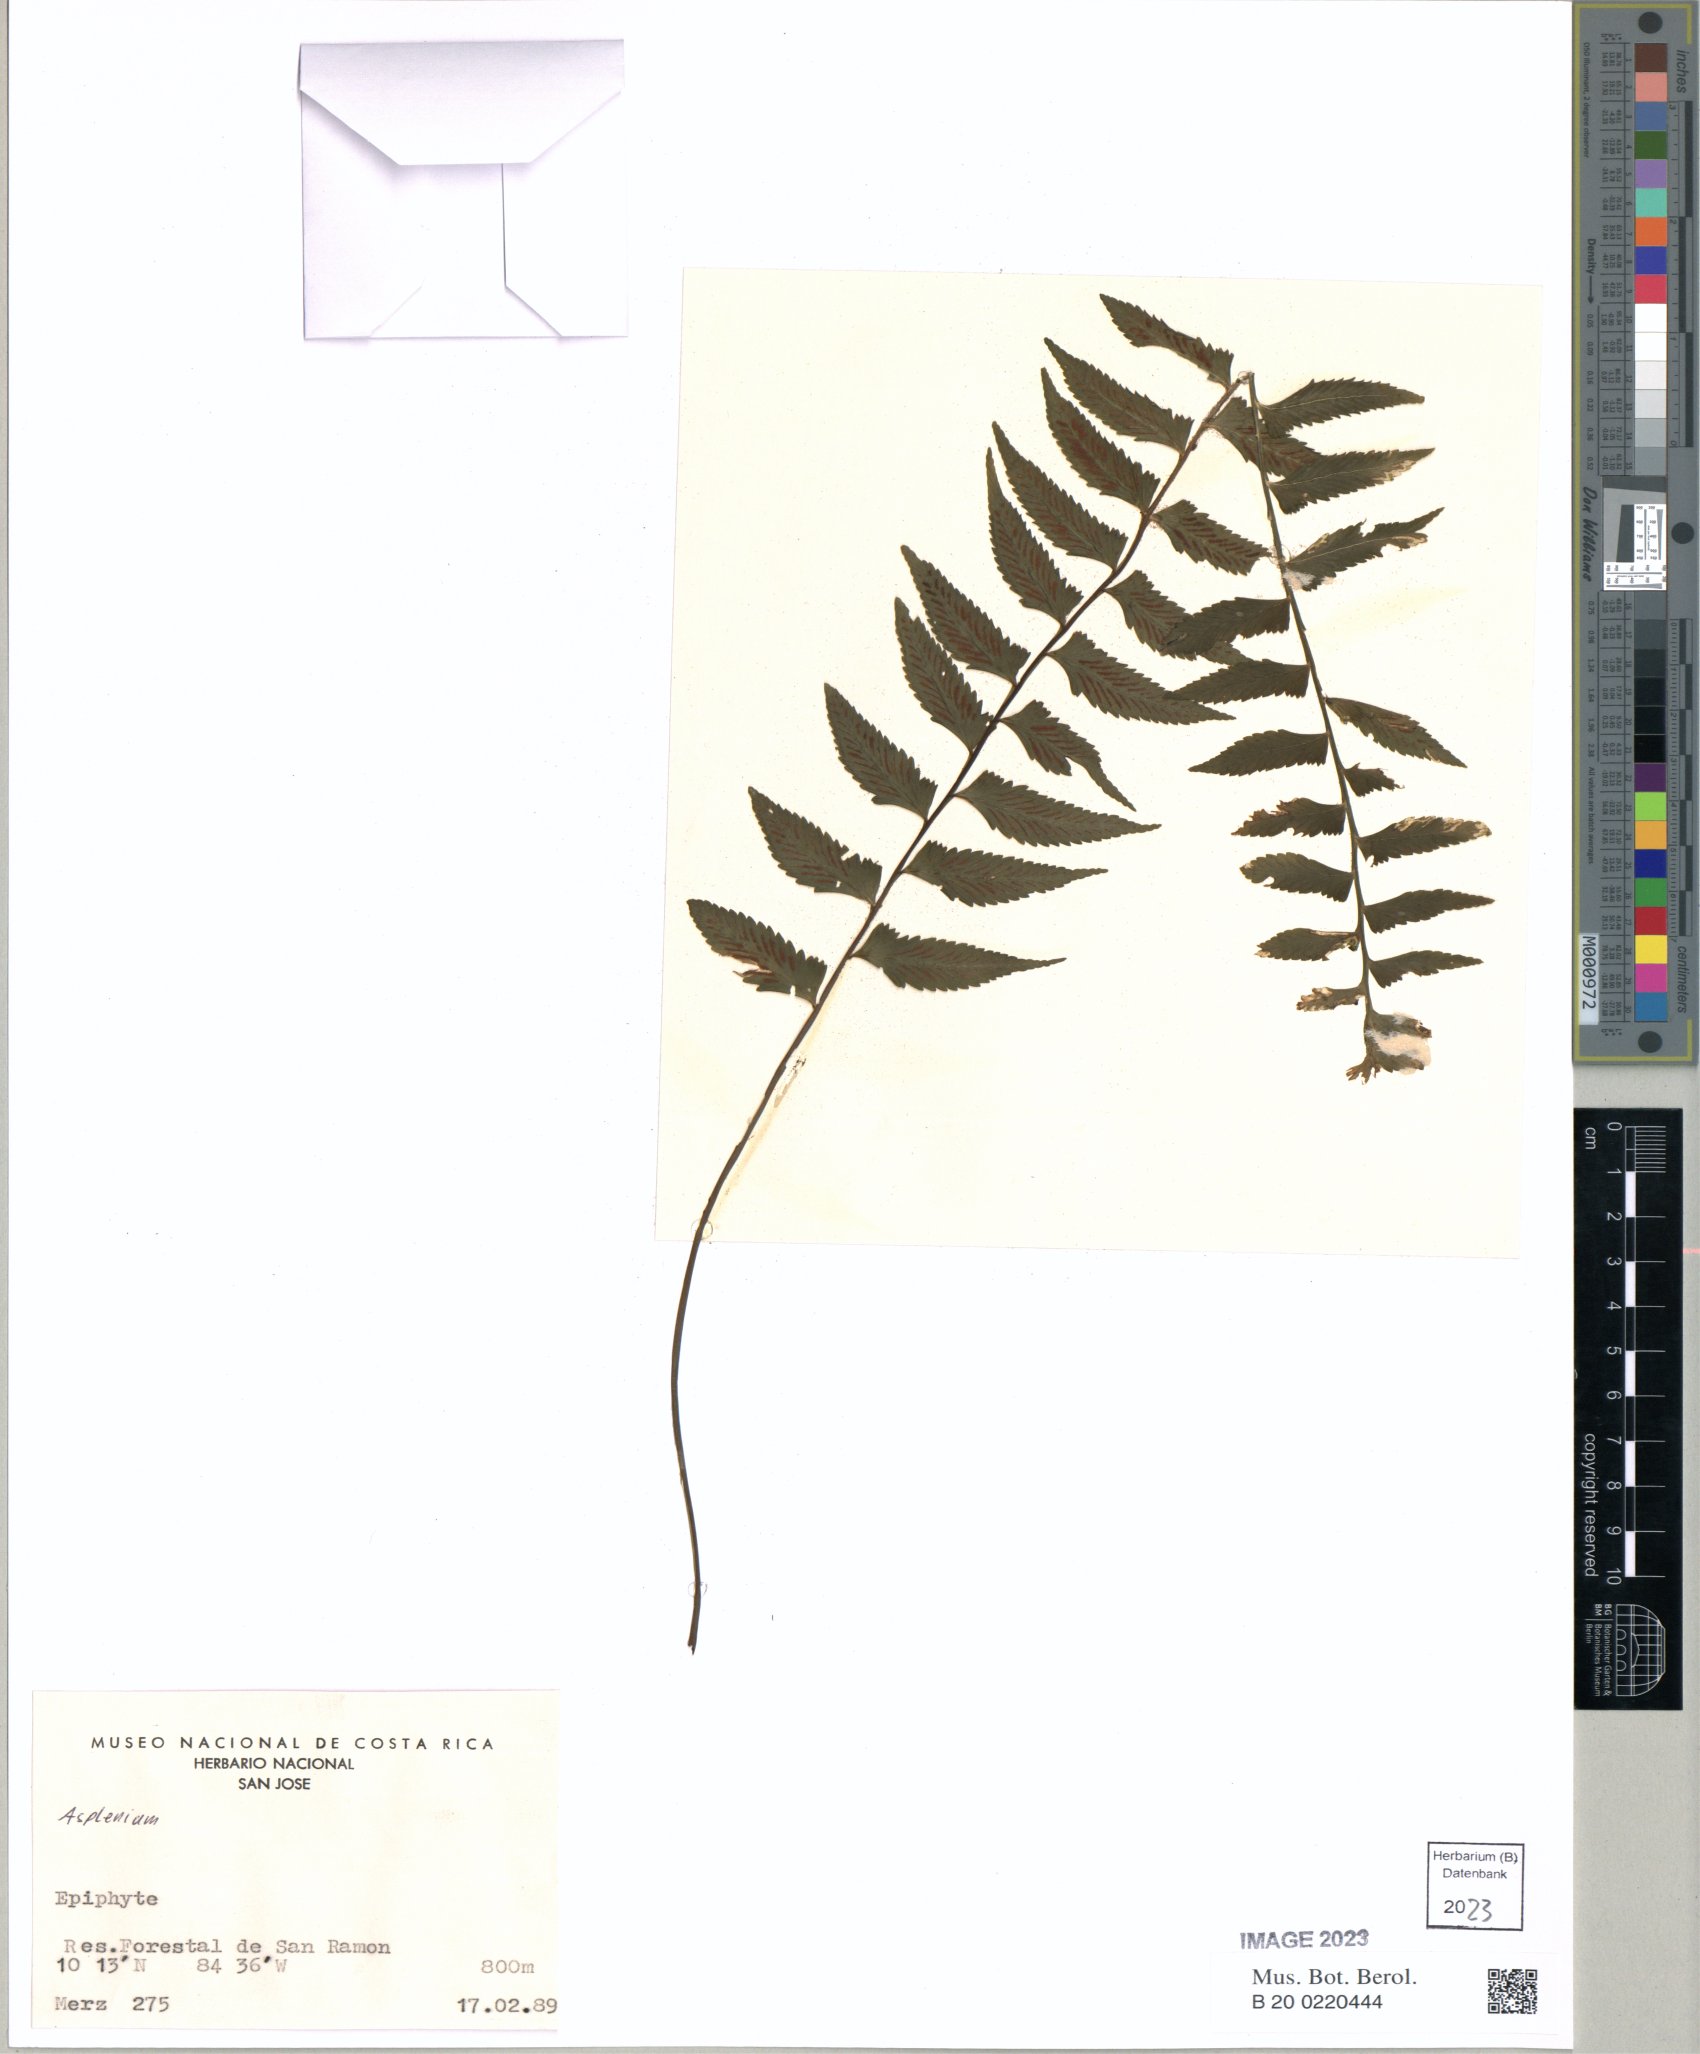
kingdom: Plantae
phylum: Tracheophyta
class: Polypodiopsida
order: Polypodiales
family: Aspleniaceae
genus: Asplenium
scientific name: Asplenium
